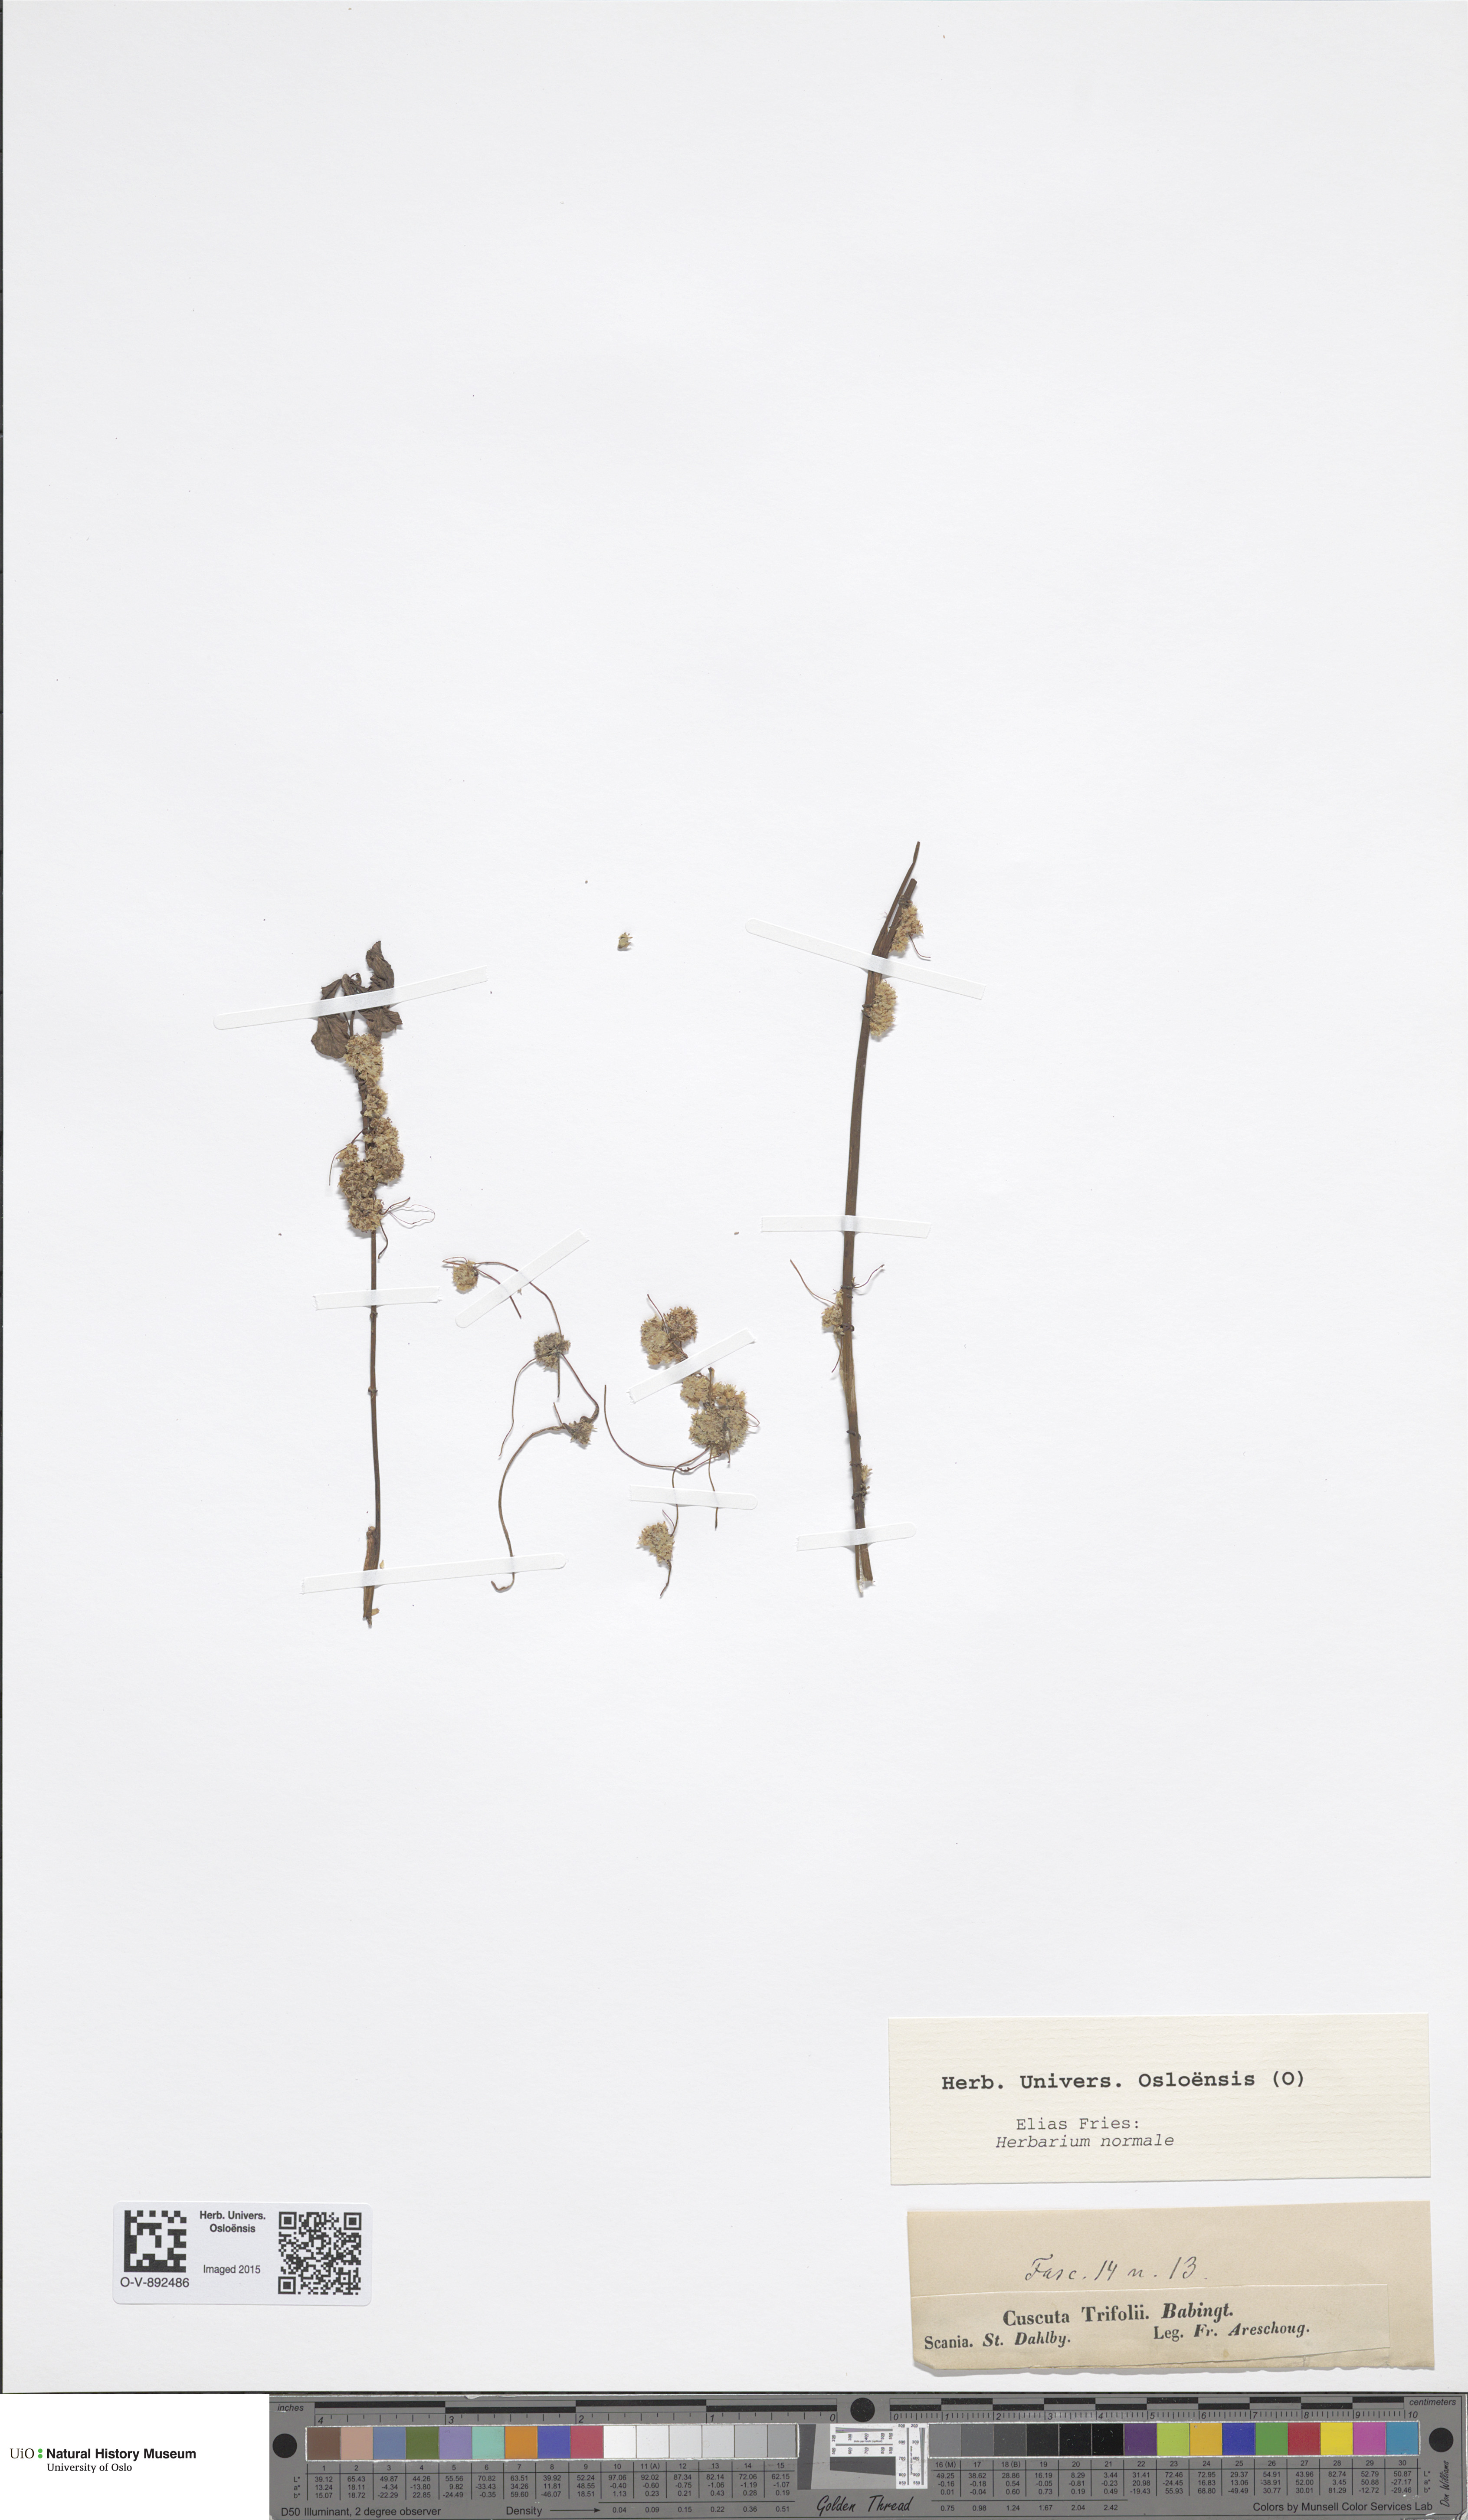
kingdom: Plantae
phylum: Tracheophyta
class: Magnoliopsida
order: Solanales
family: Convolvulaceae
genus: Cuscuta
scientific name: Cuscuta epithymum
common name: Clover dodder
